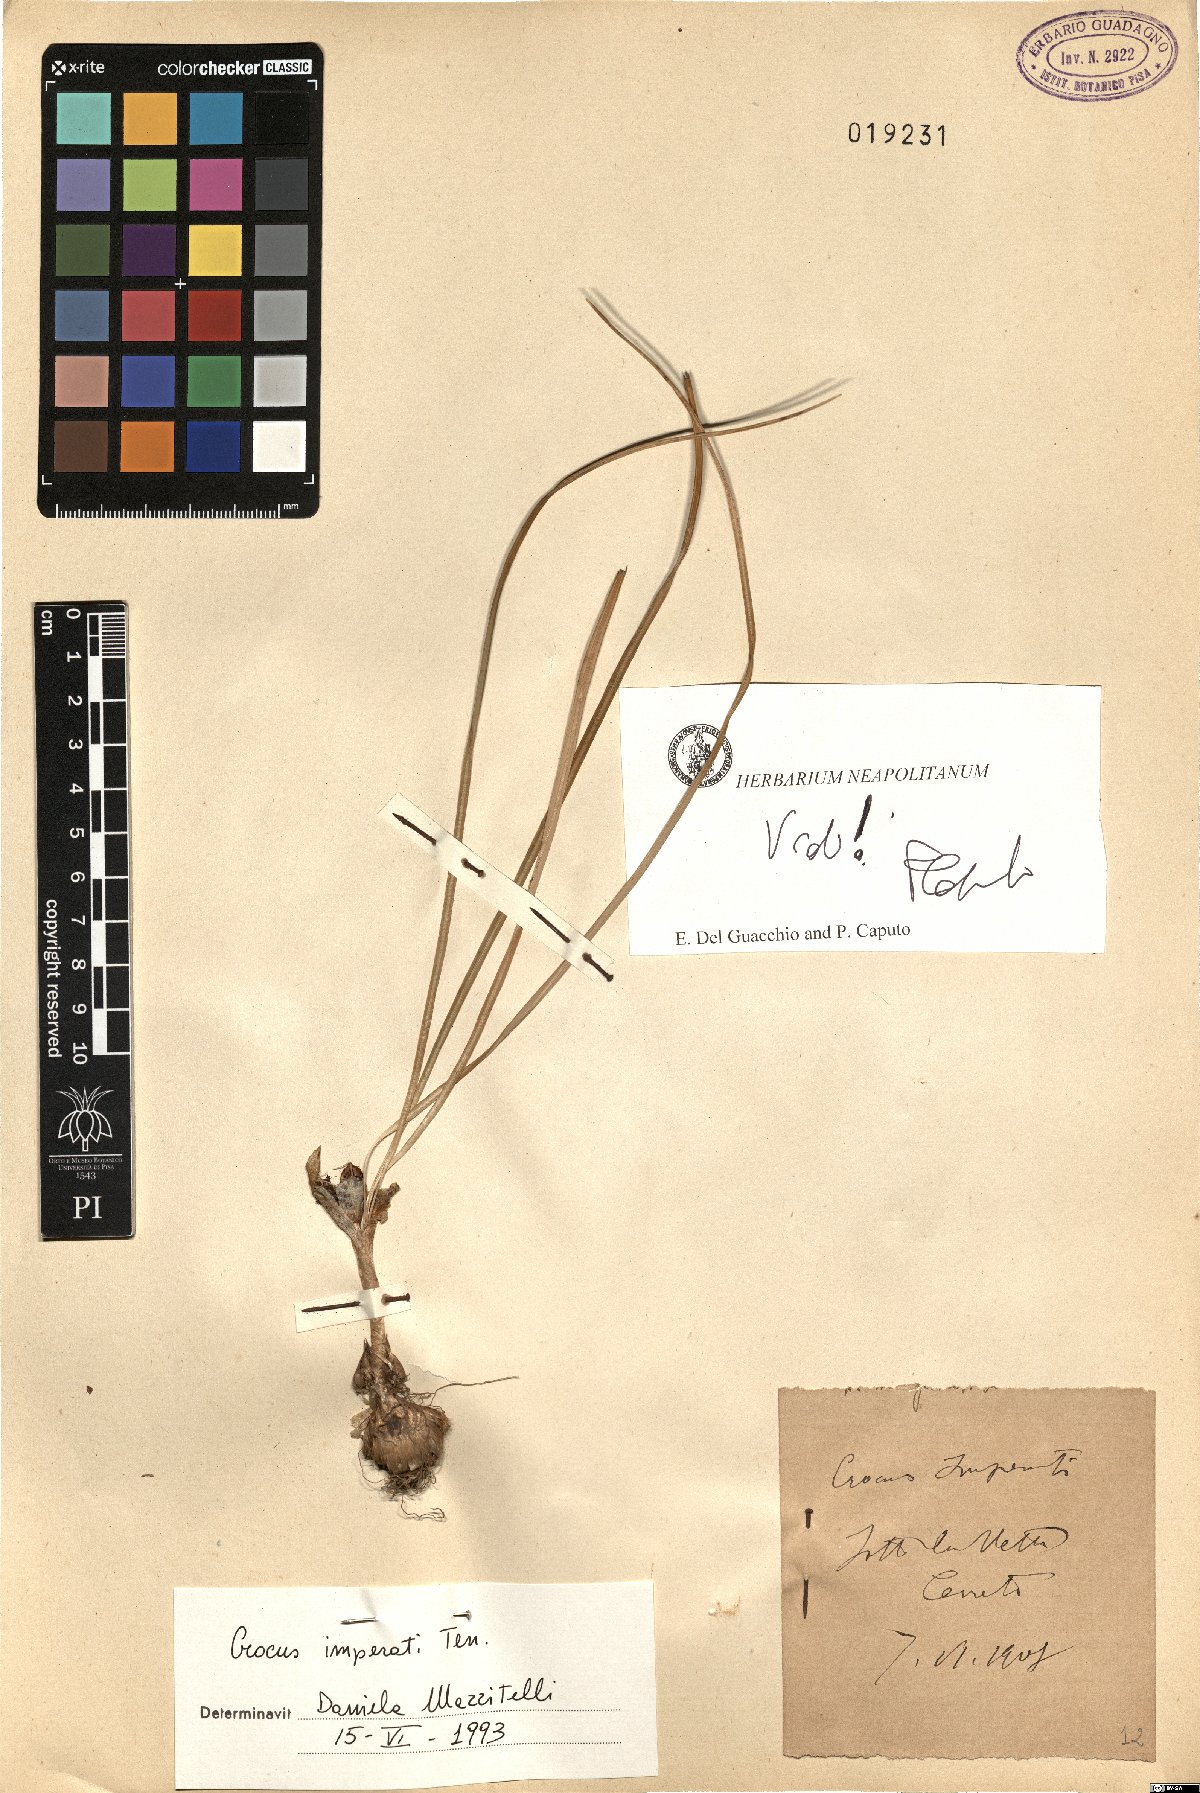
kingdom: Plantae
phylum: Tracheophyta
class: Liliopsida
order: Asparagales
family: Iridaceae
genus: Crocus
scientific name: Crocus imperati
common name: Early crocus
